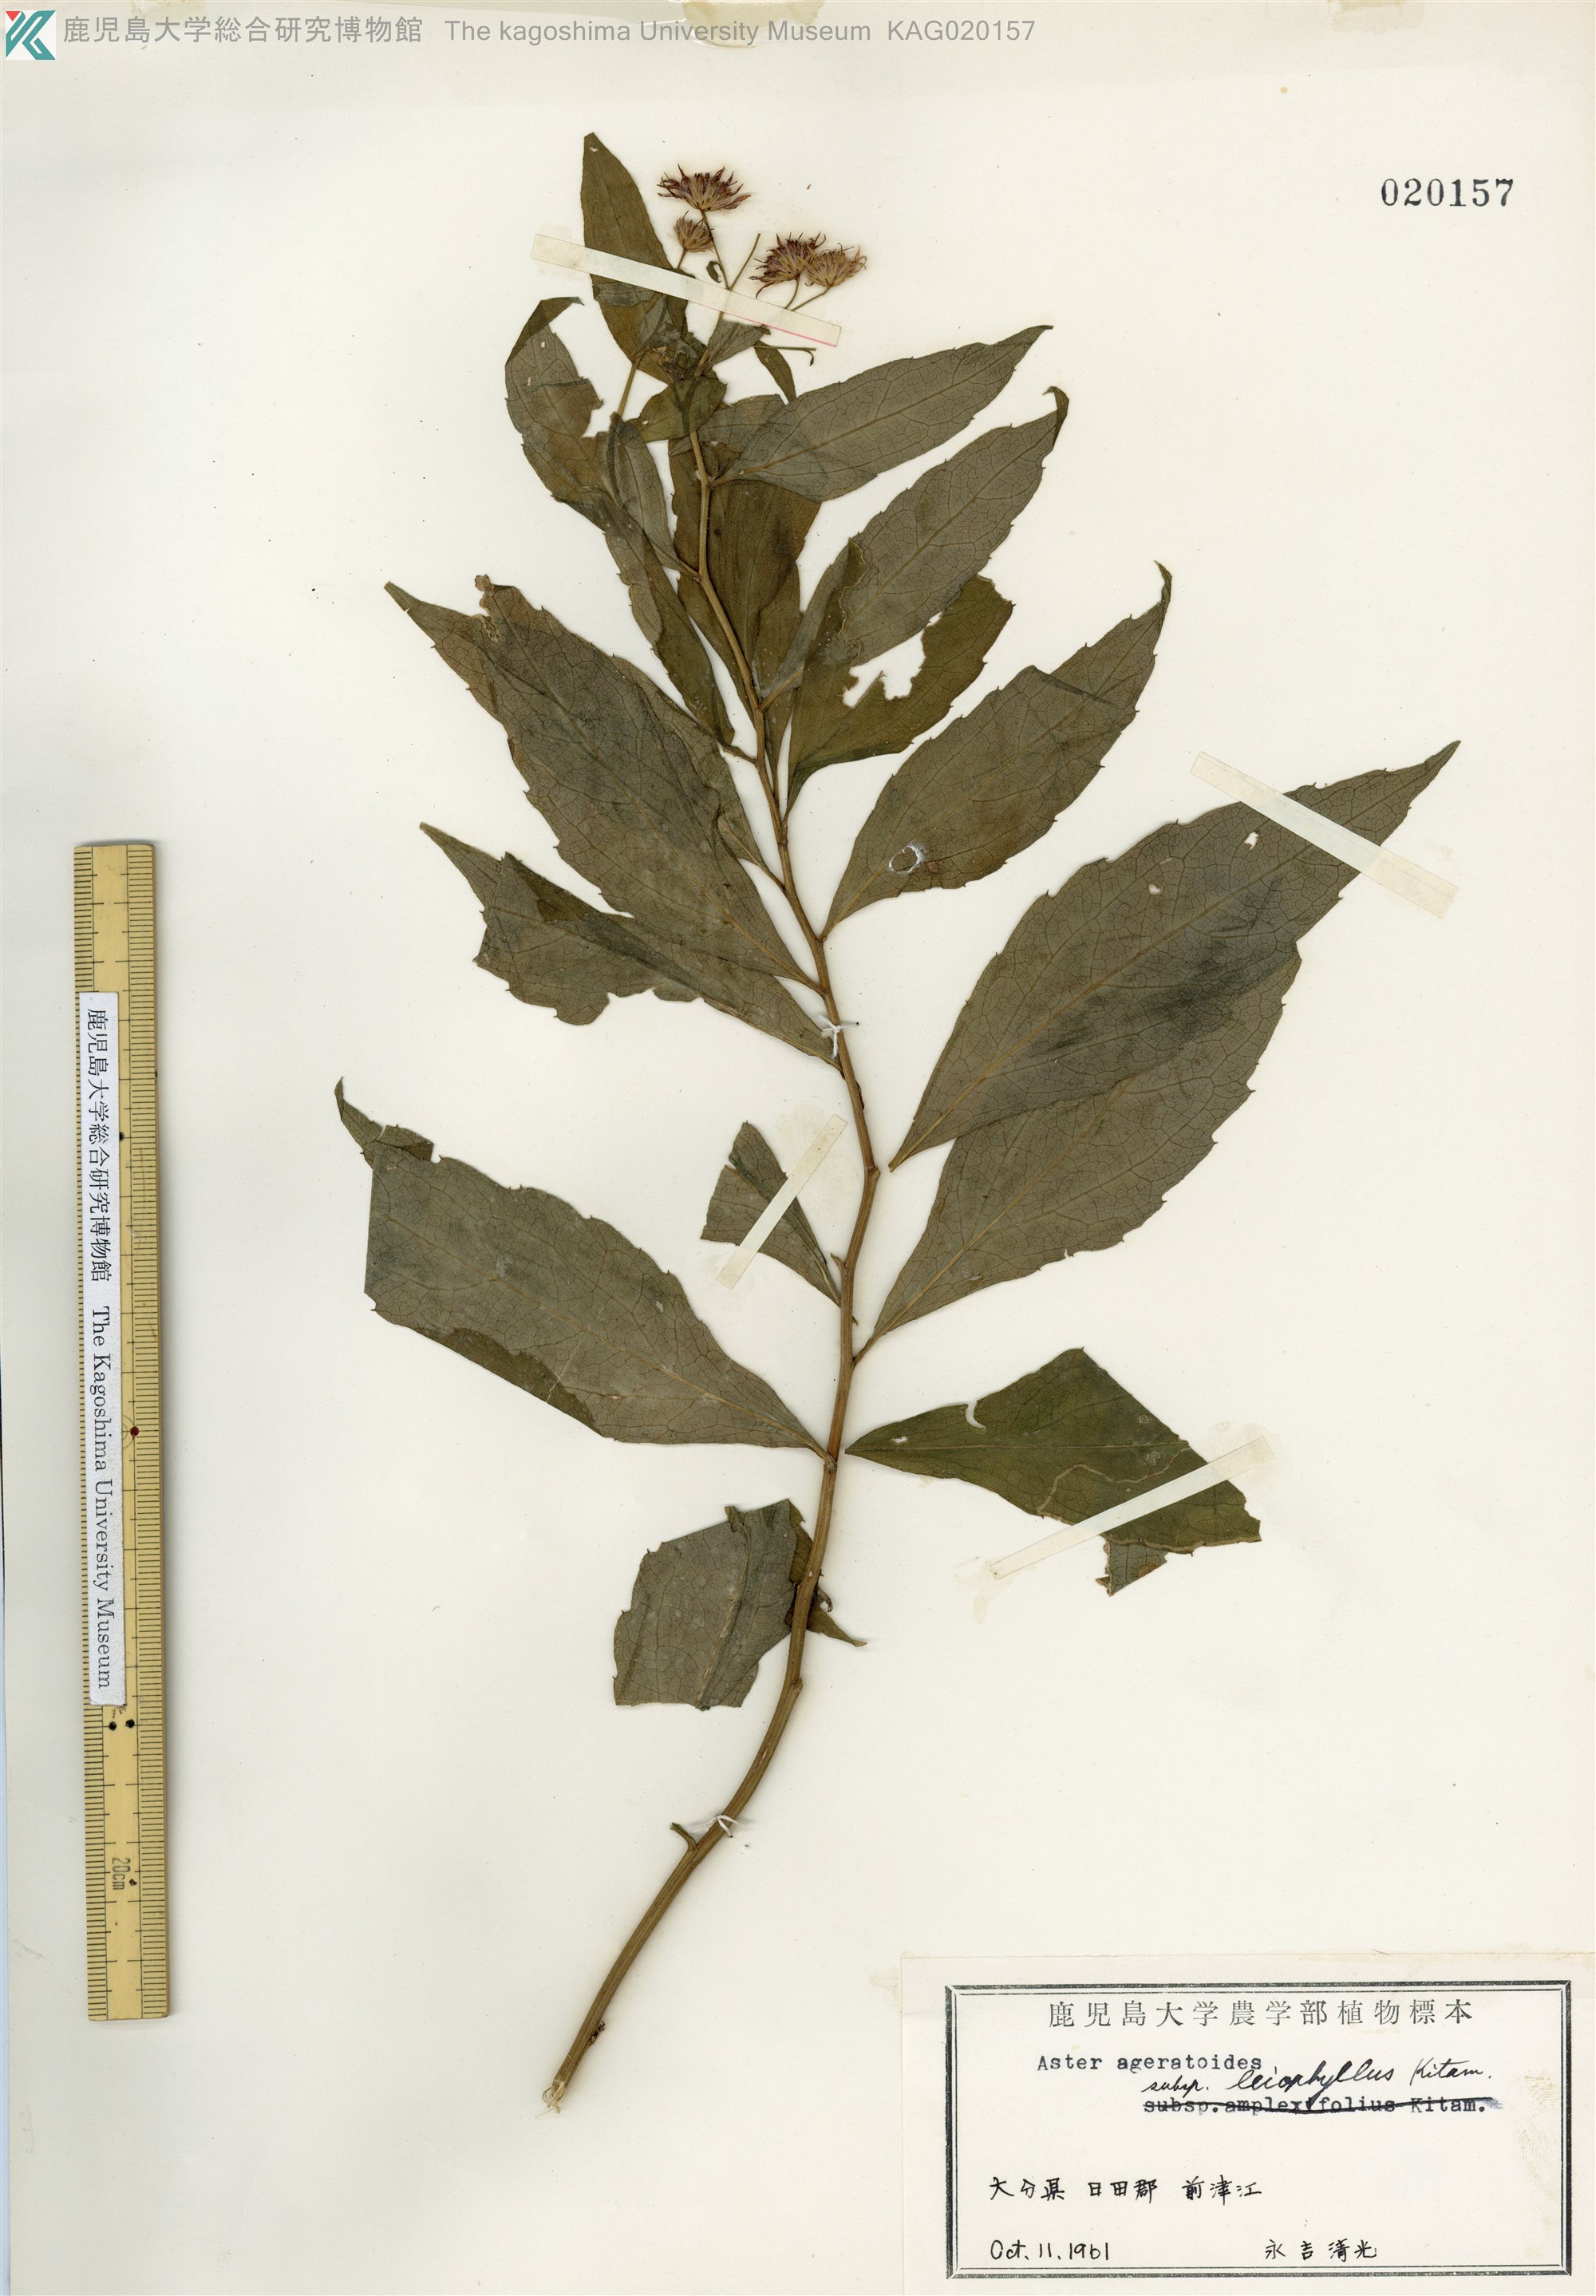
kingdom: Plantae
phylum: Tracheophyta
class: Magnoliopsida
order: Asterales
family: Asteraceae
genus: Aster
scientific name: Aster ageratoides
